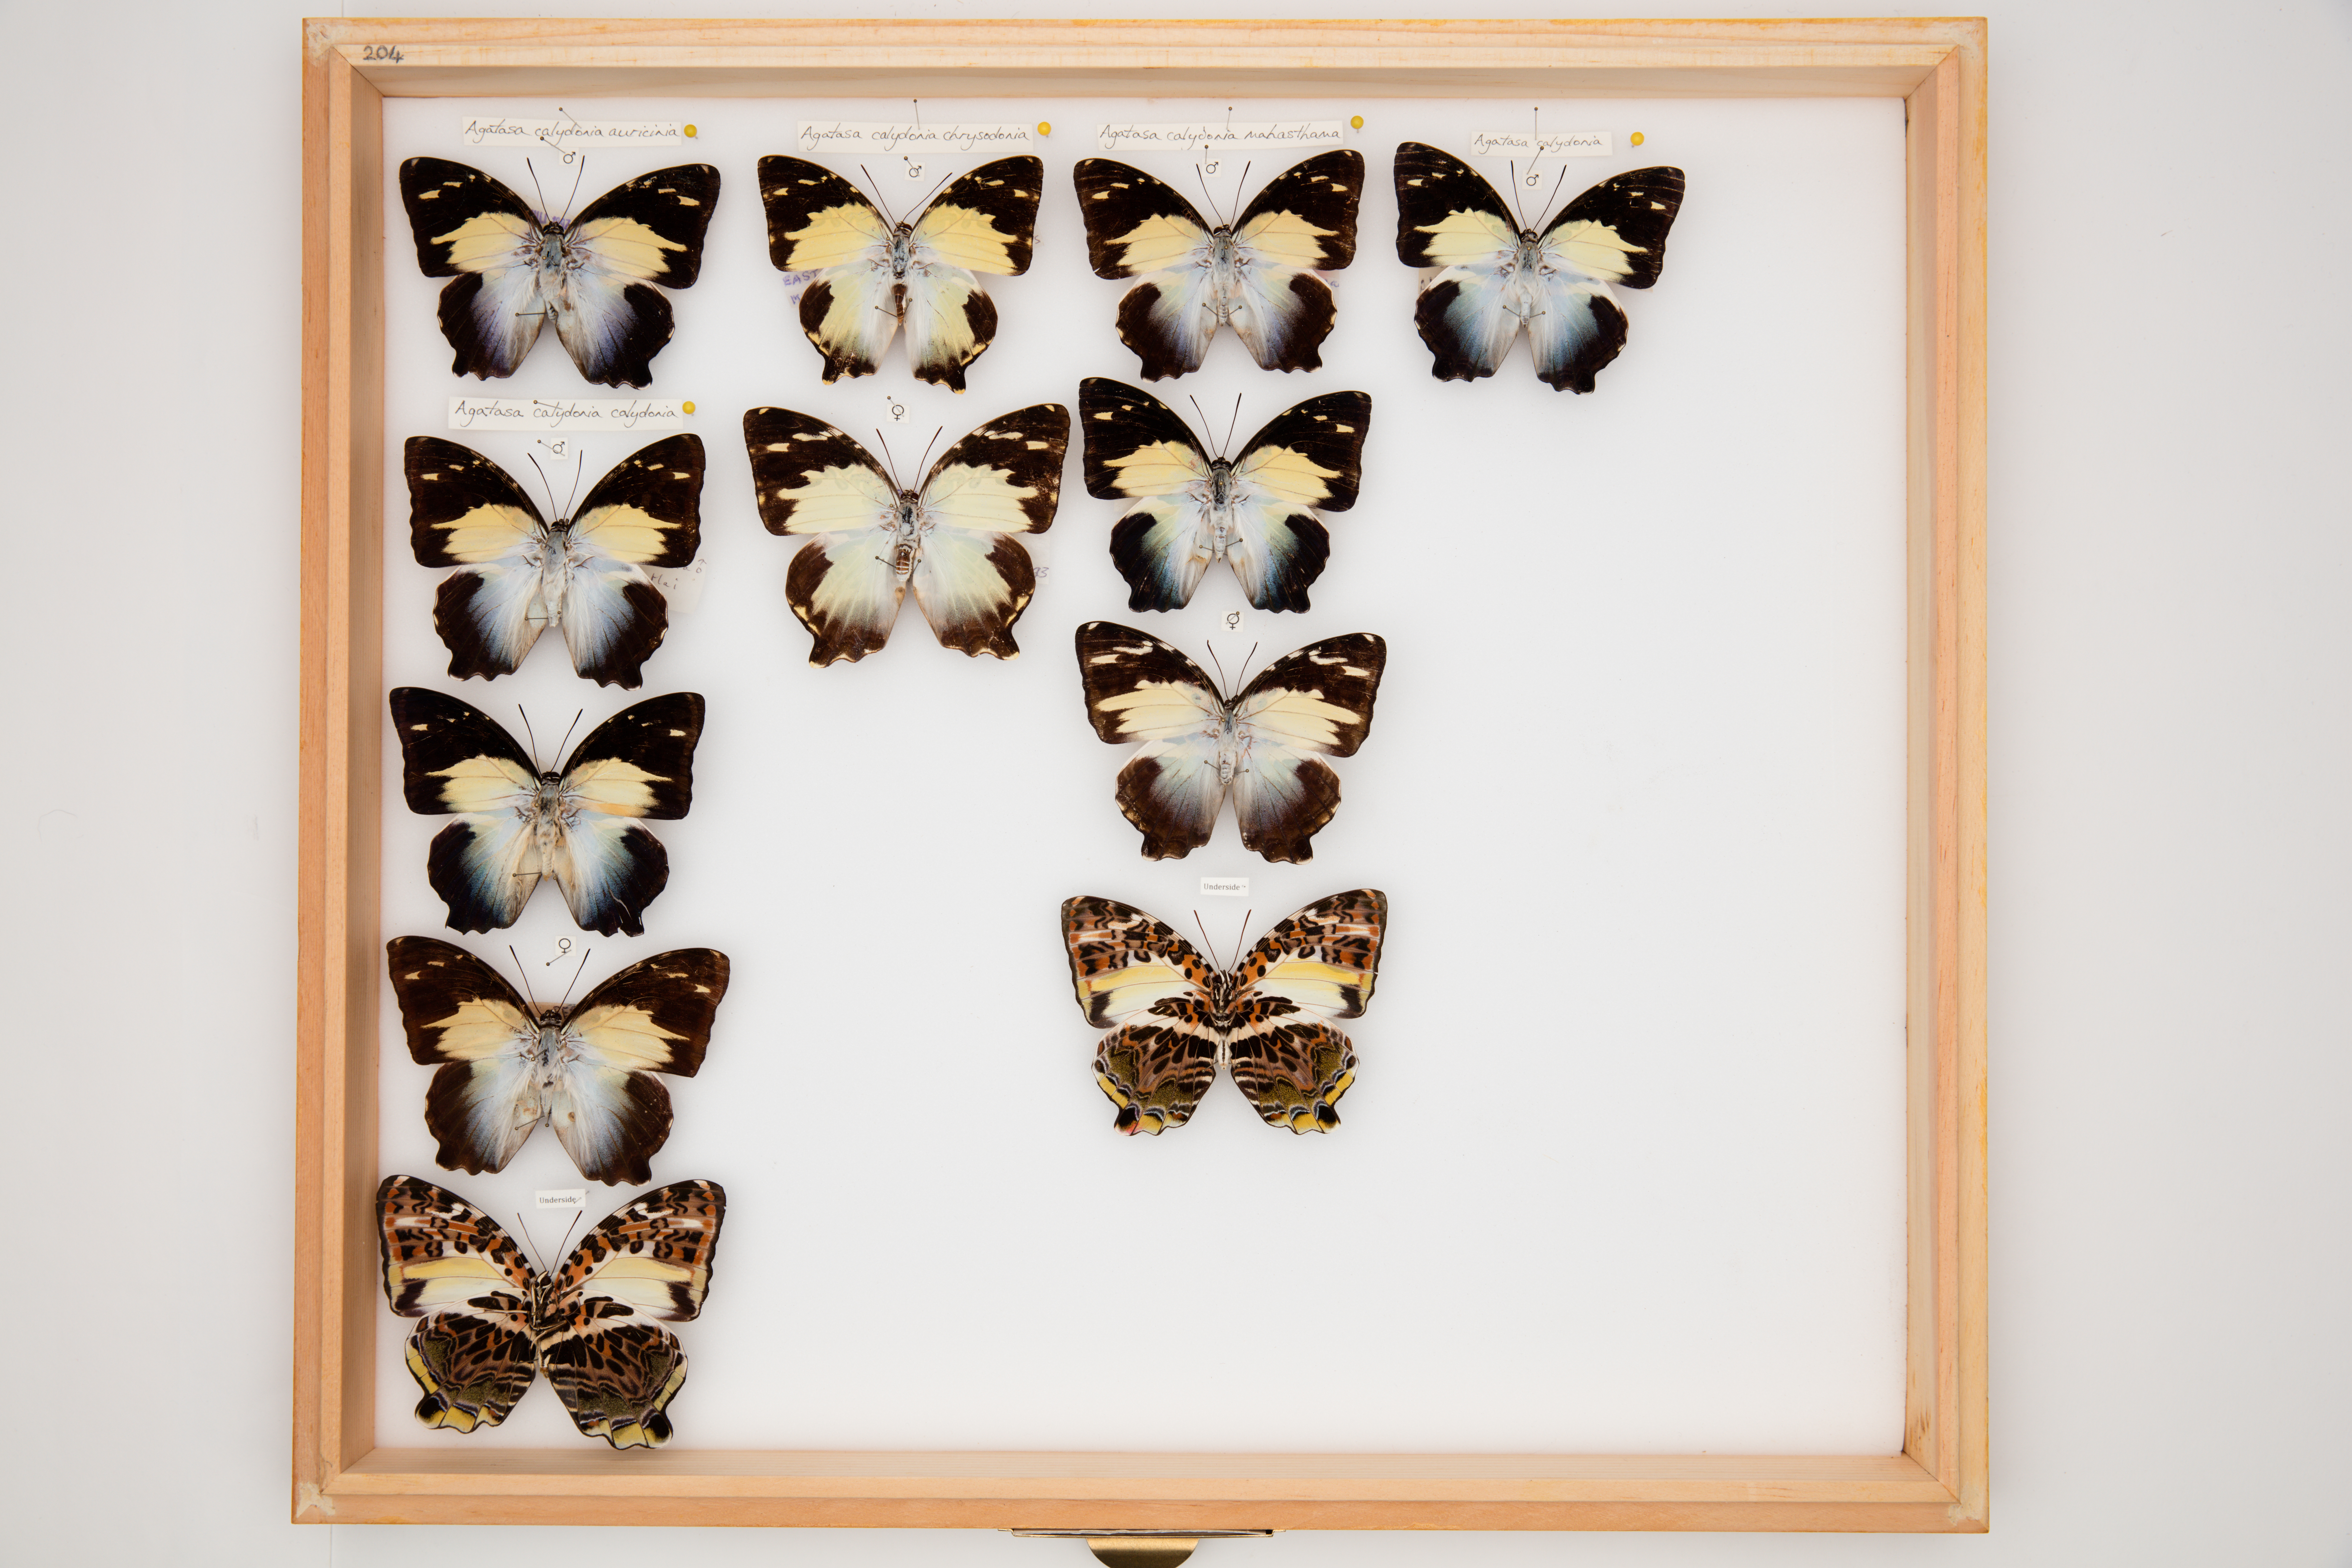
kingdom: Animalia
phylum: Arthropoda
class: Insecta
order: Lepidoptera
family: Nymphalidae
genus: Prothoe
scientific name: Prothoe Agatasa calydonia
